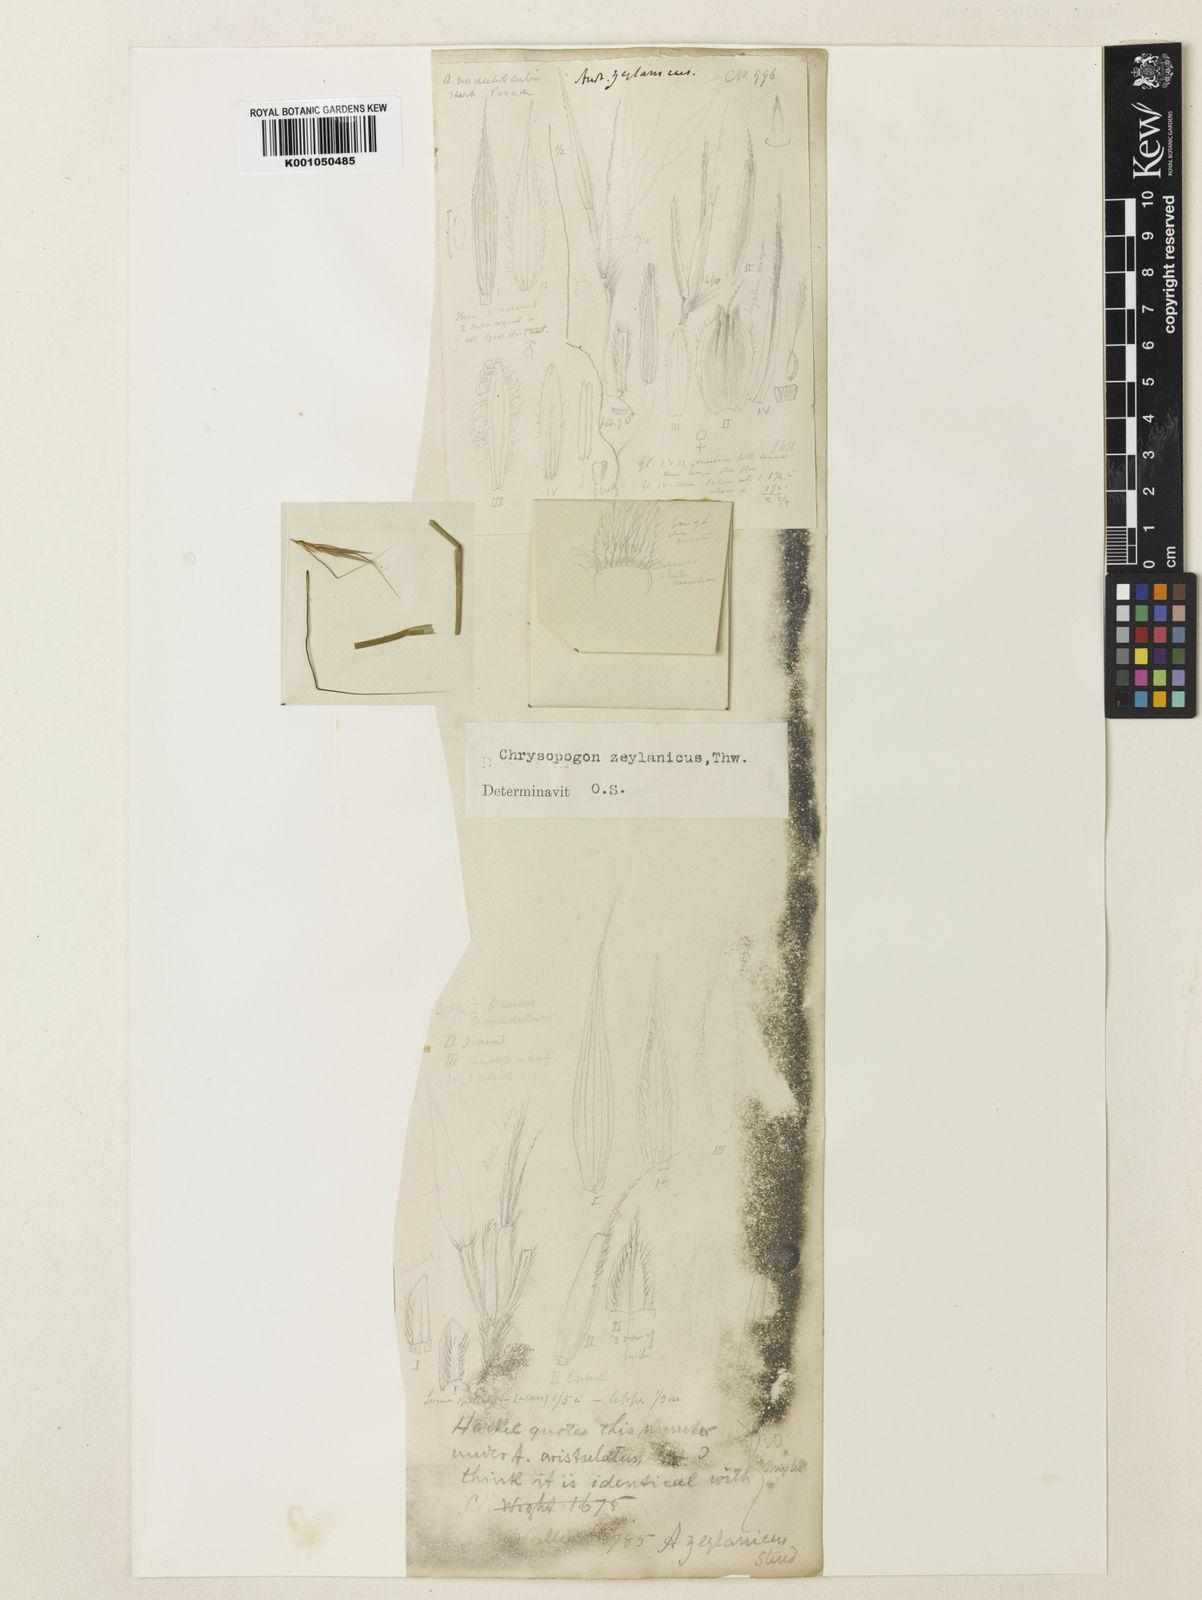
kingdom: Plantae
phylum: Tracheophyta
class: Liliopsida
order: Poales
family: Poaceae
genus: Chrysopogon
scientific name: Chrysopogon nodulibarbis
